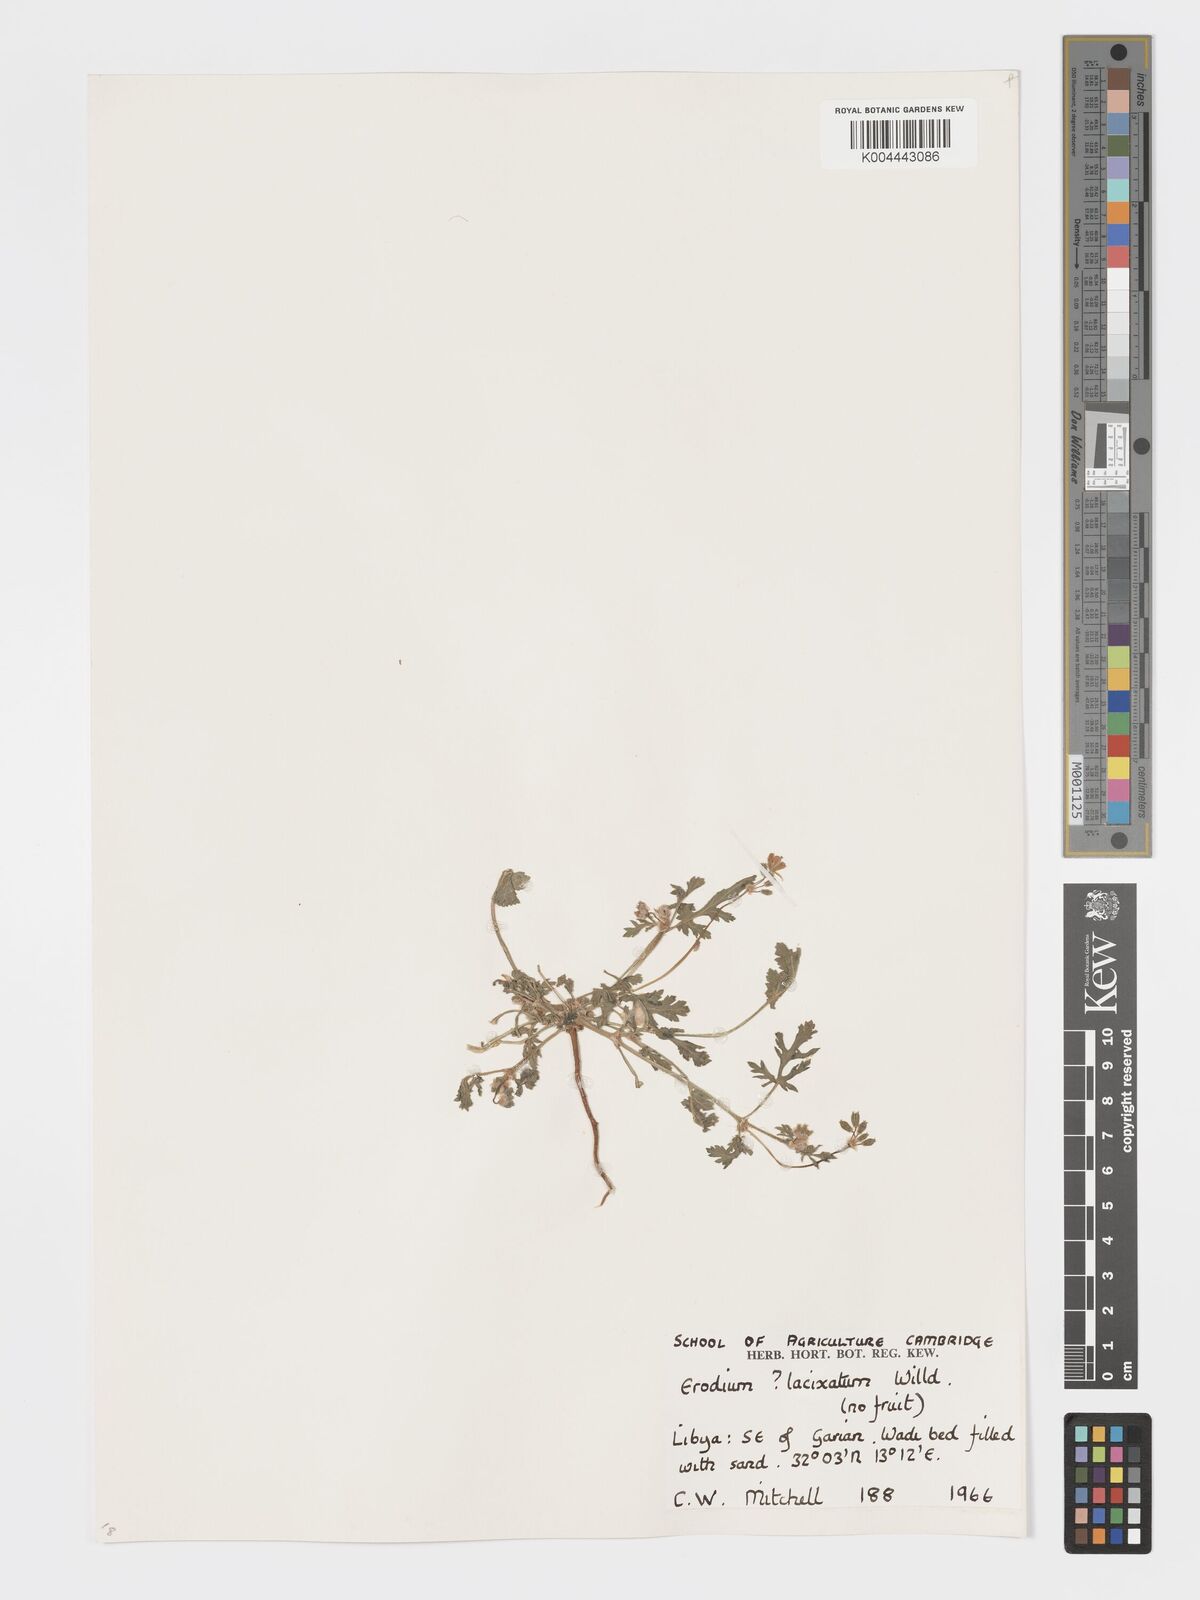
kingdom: Plantae
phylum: Tracheophyta
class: Magnoliopsida
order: Geraniales
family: Geraniaceae
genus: Erodium
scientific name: Erodium laciniatum
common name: Cutleaf stork's bill
